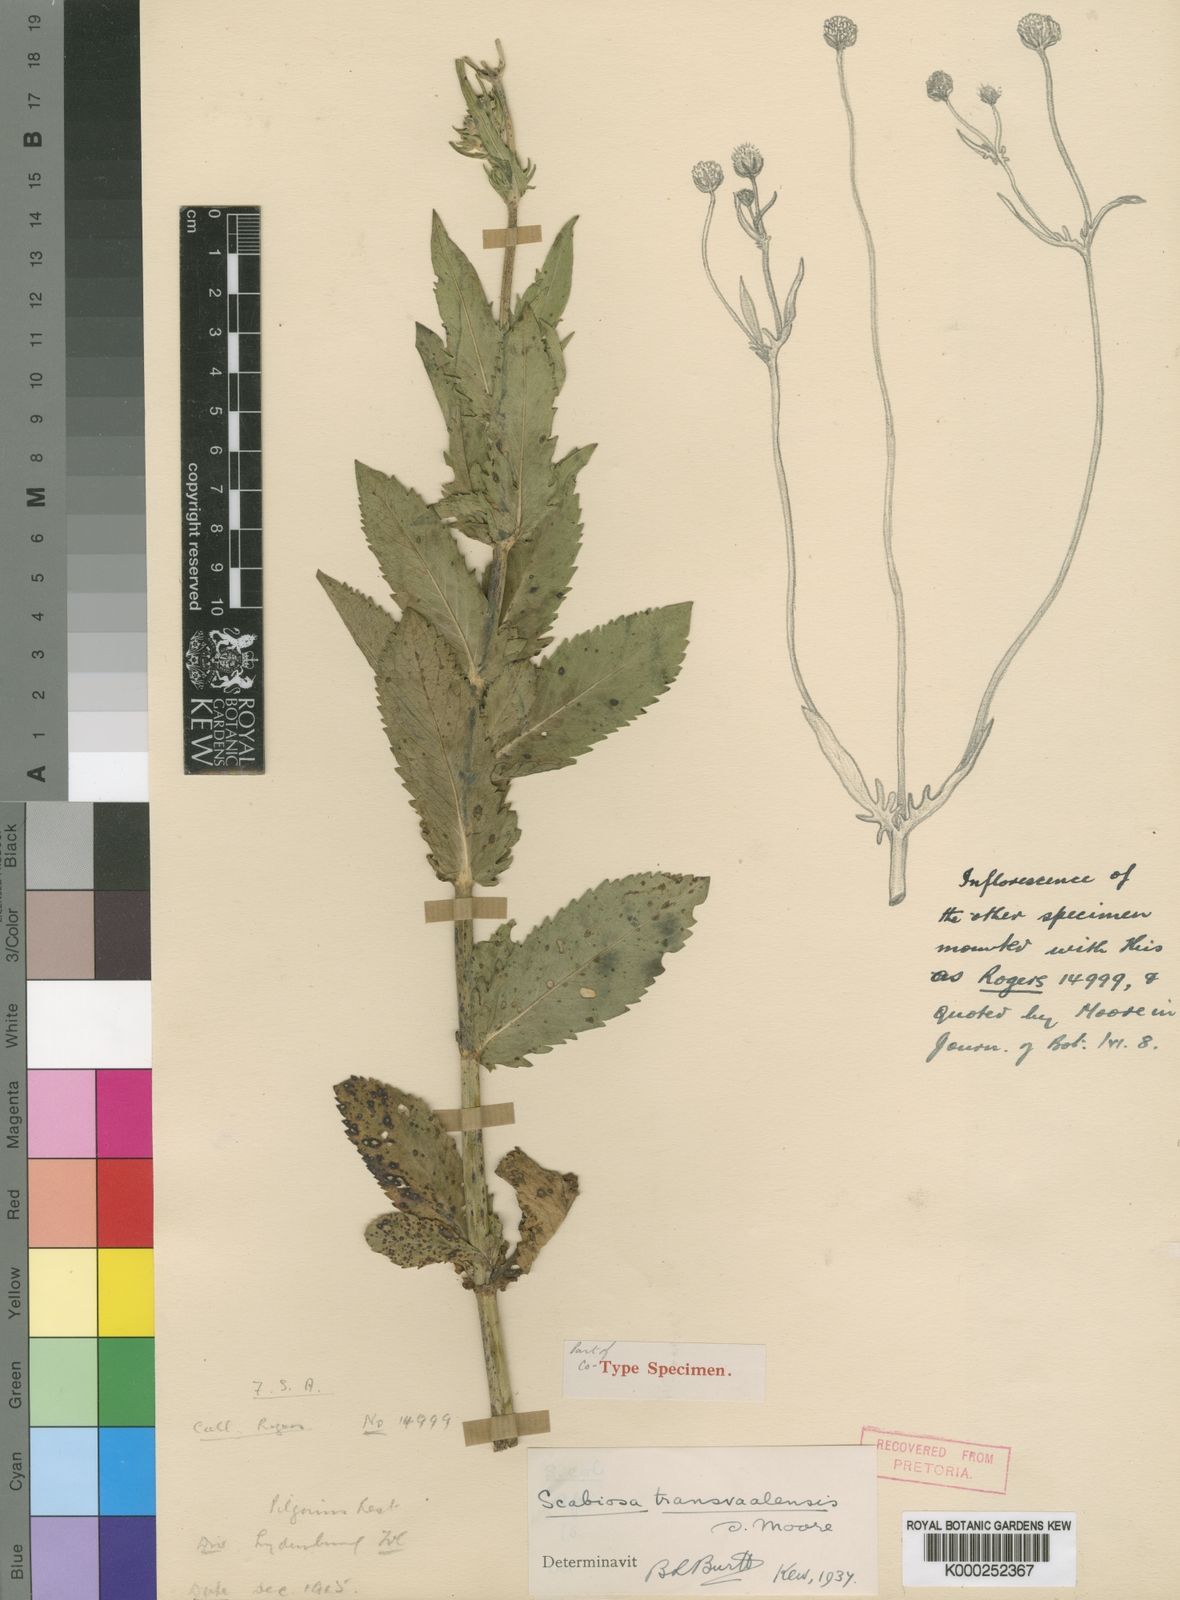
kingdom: Plantae
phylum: Tracheophyta
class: Magnoliopsida
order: Dipsacales
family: Caprifoliaceae
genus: Scabiosa
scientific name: Scabiosa transvaalensis
